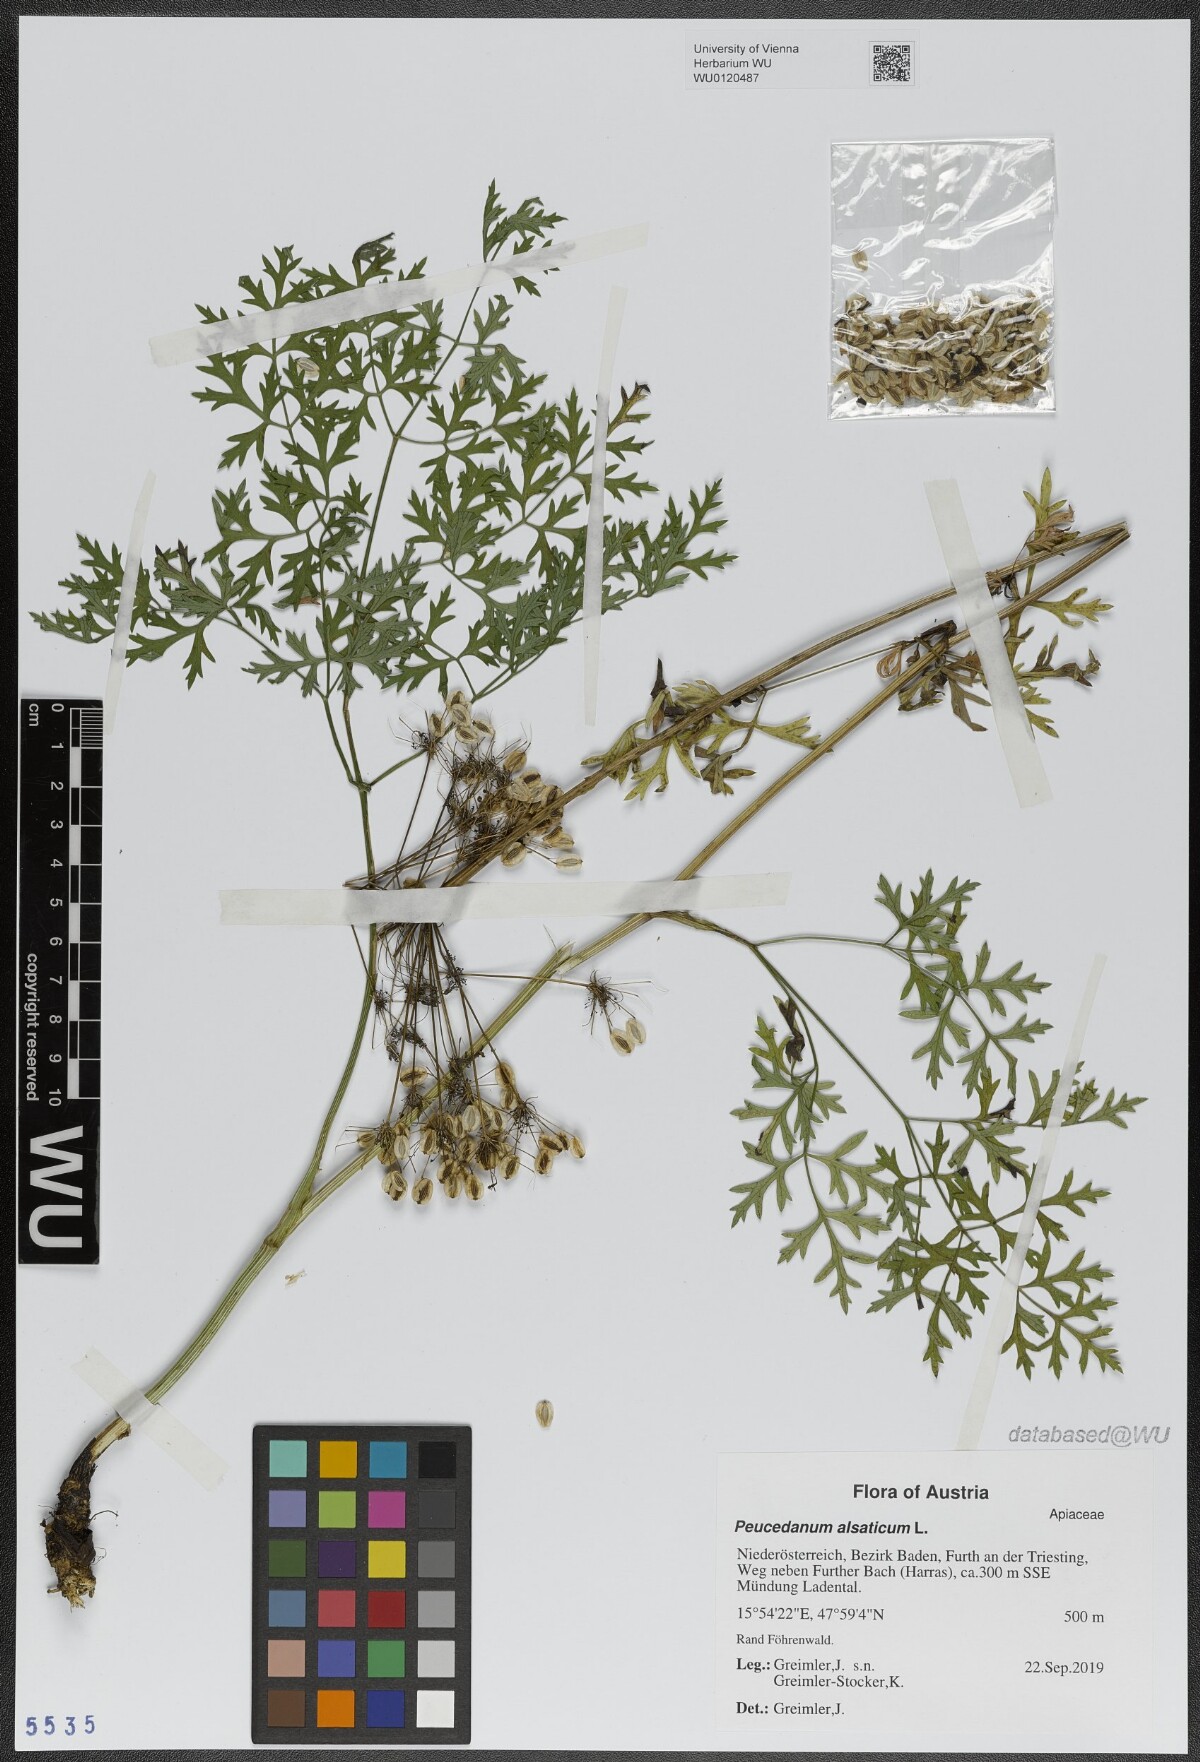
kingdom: Plantae
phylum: Tracheophyta
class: Magnoliopsida
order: Apiales
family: Apiaceae
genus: Xanthoselinum
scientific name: Xanthoselinum alsaticum
